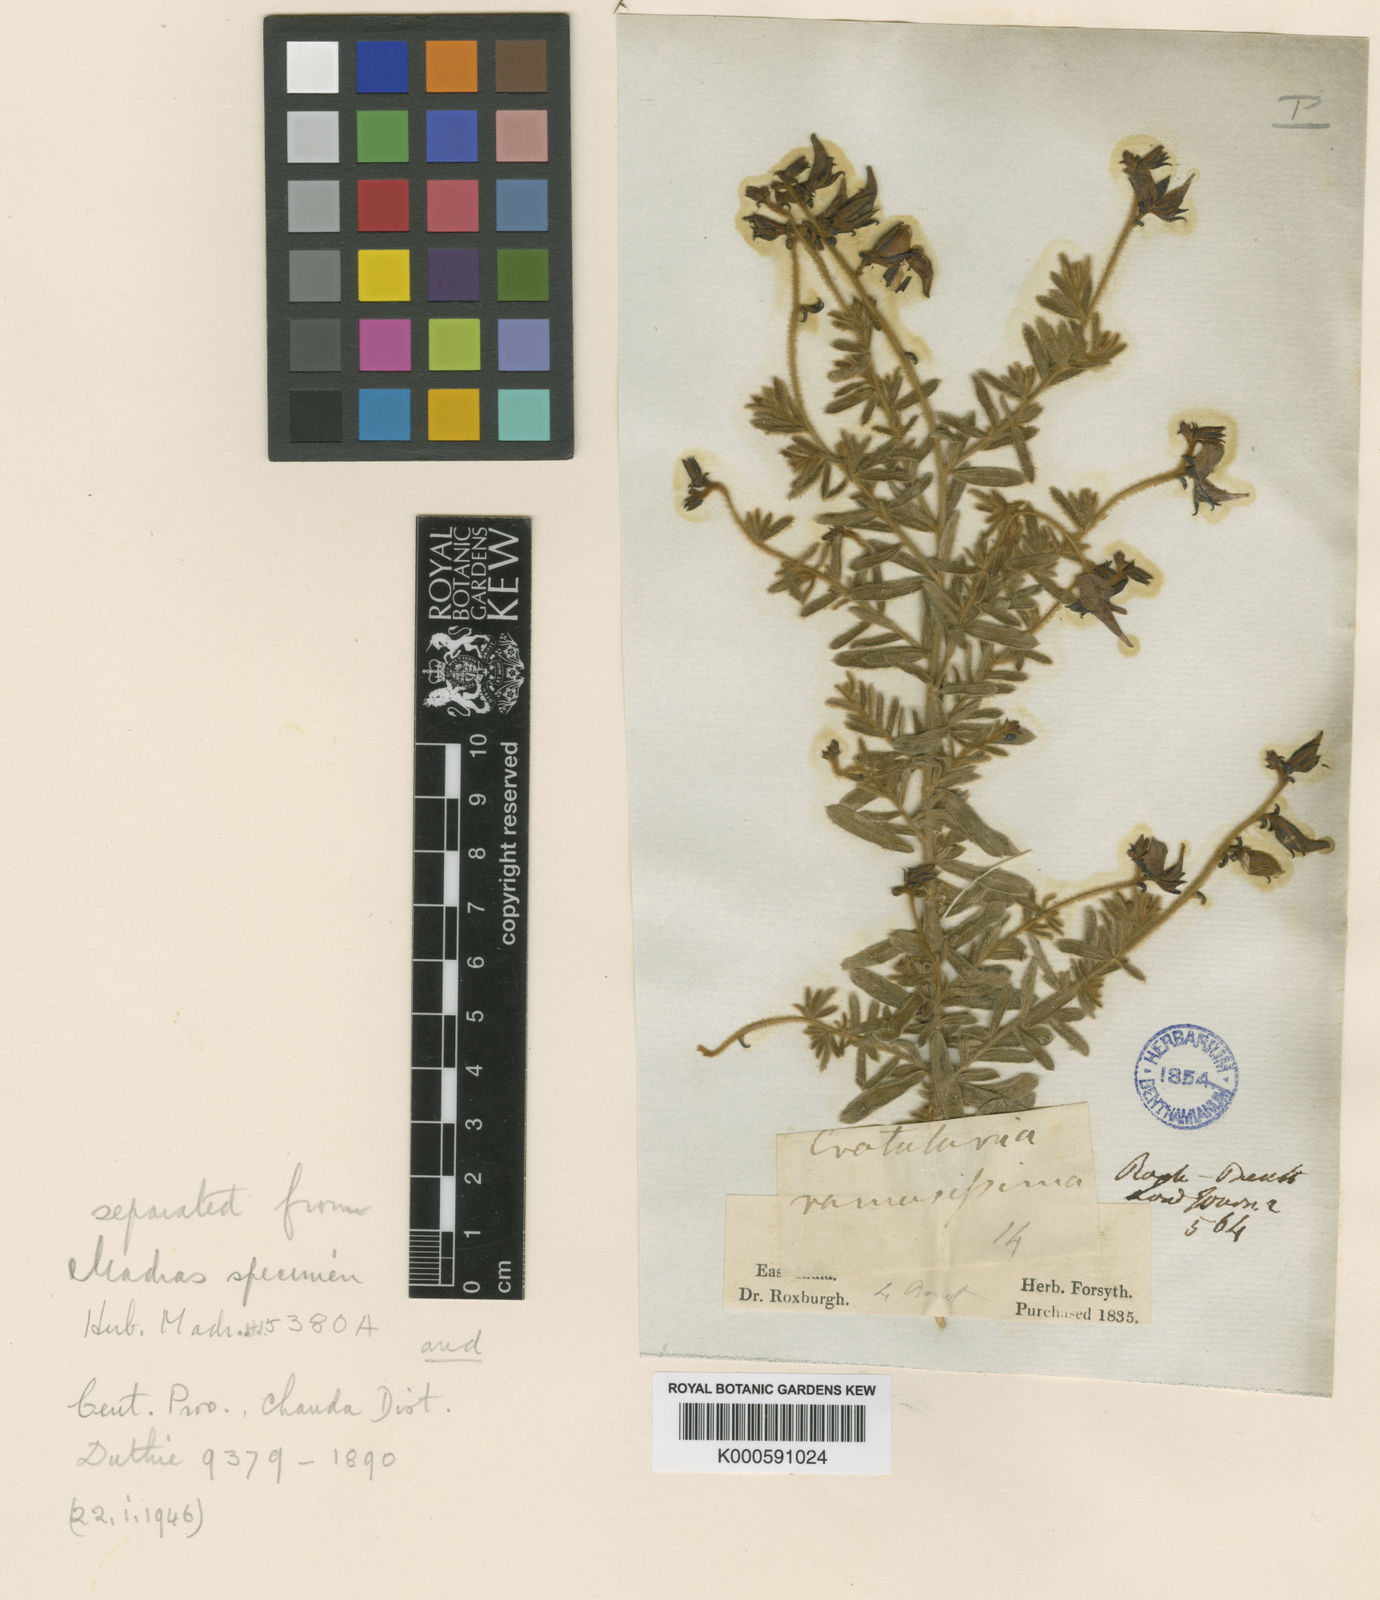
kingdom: Plantae
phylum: Tracheophyta
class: Magnoliopsida
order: Fabales
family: Fabaceae
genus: Crotalaria
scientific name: Crotalaria
